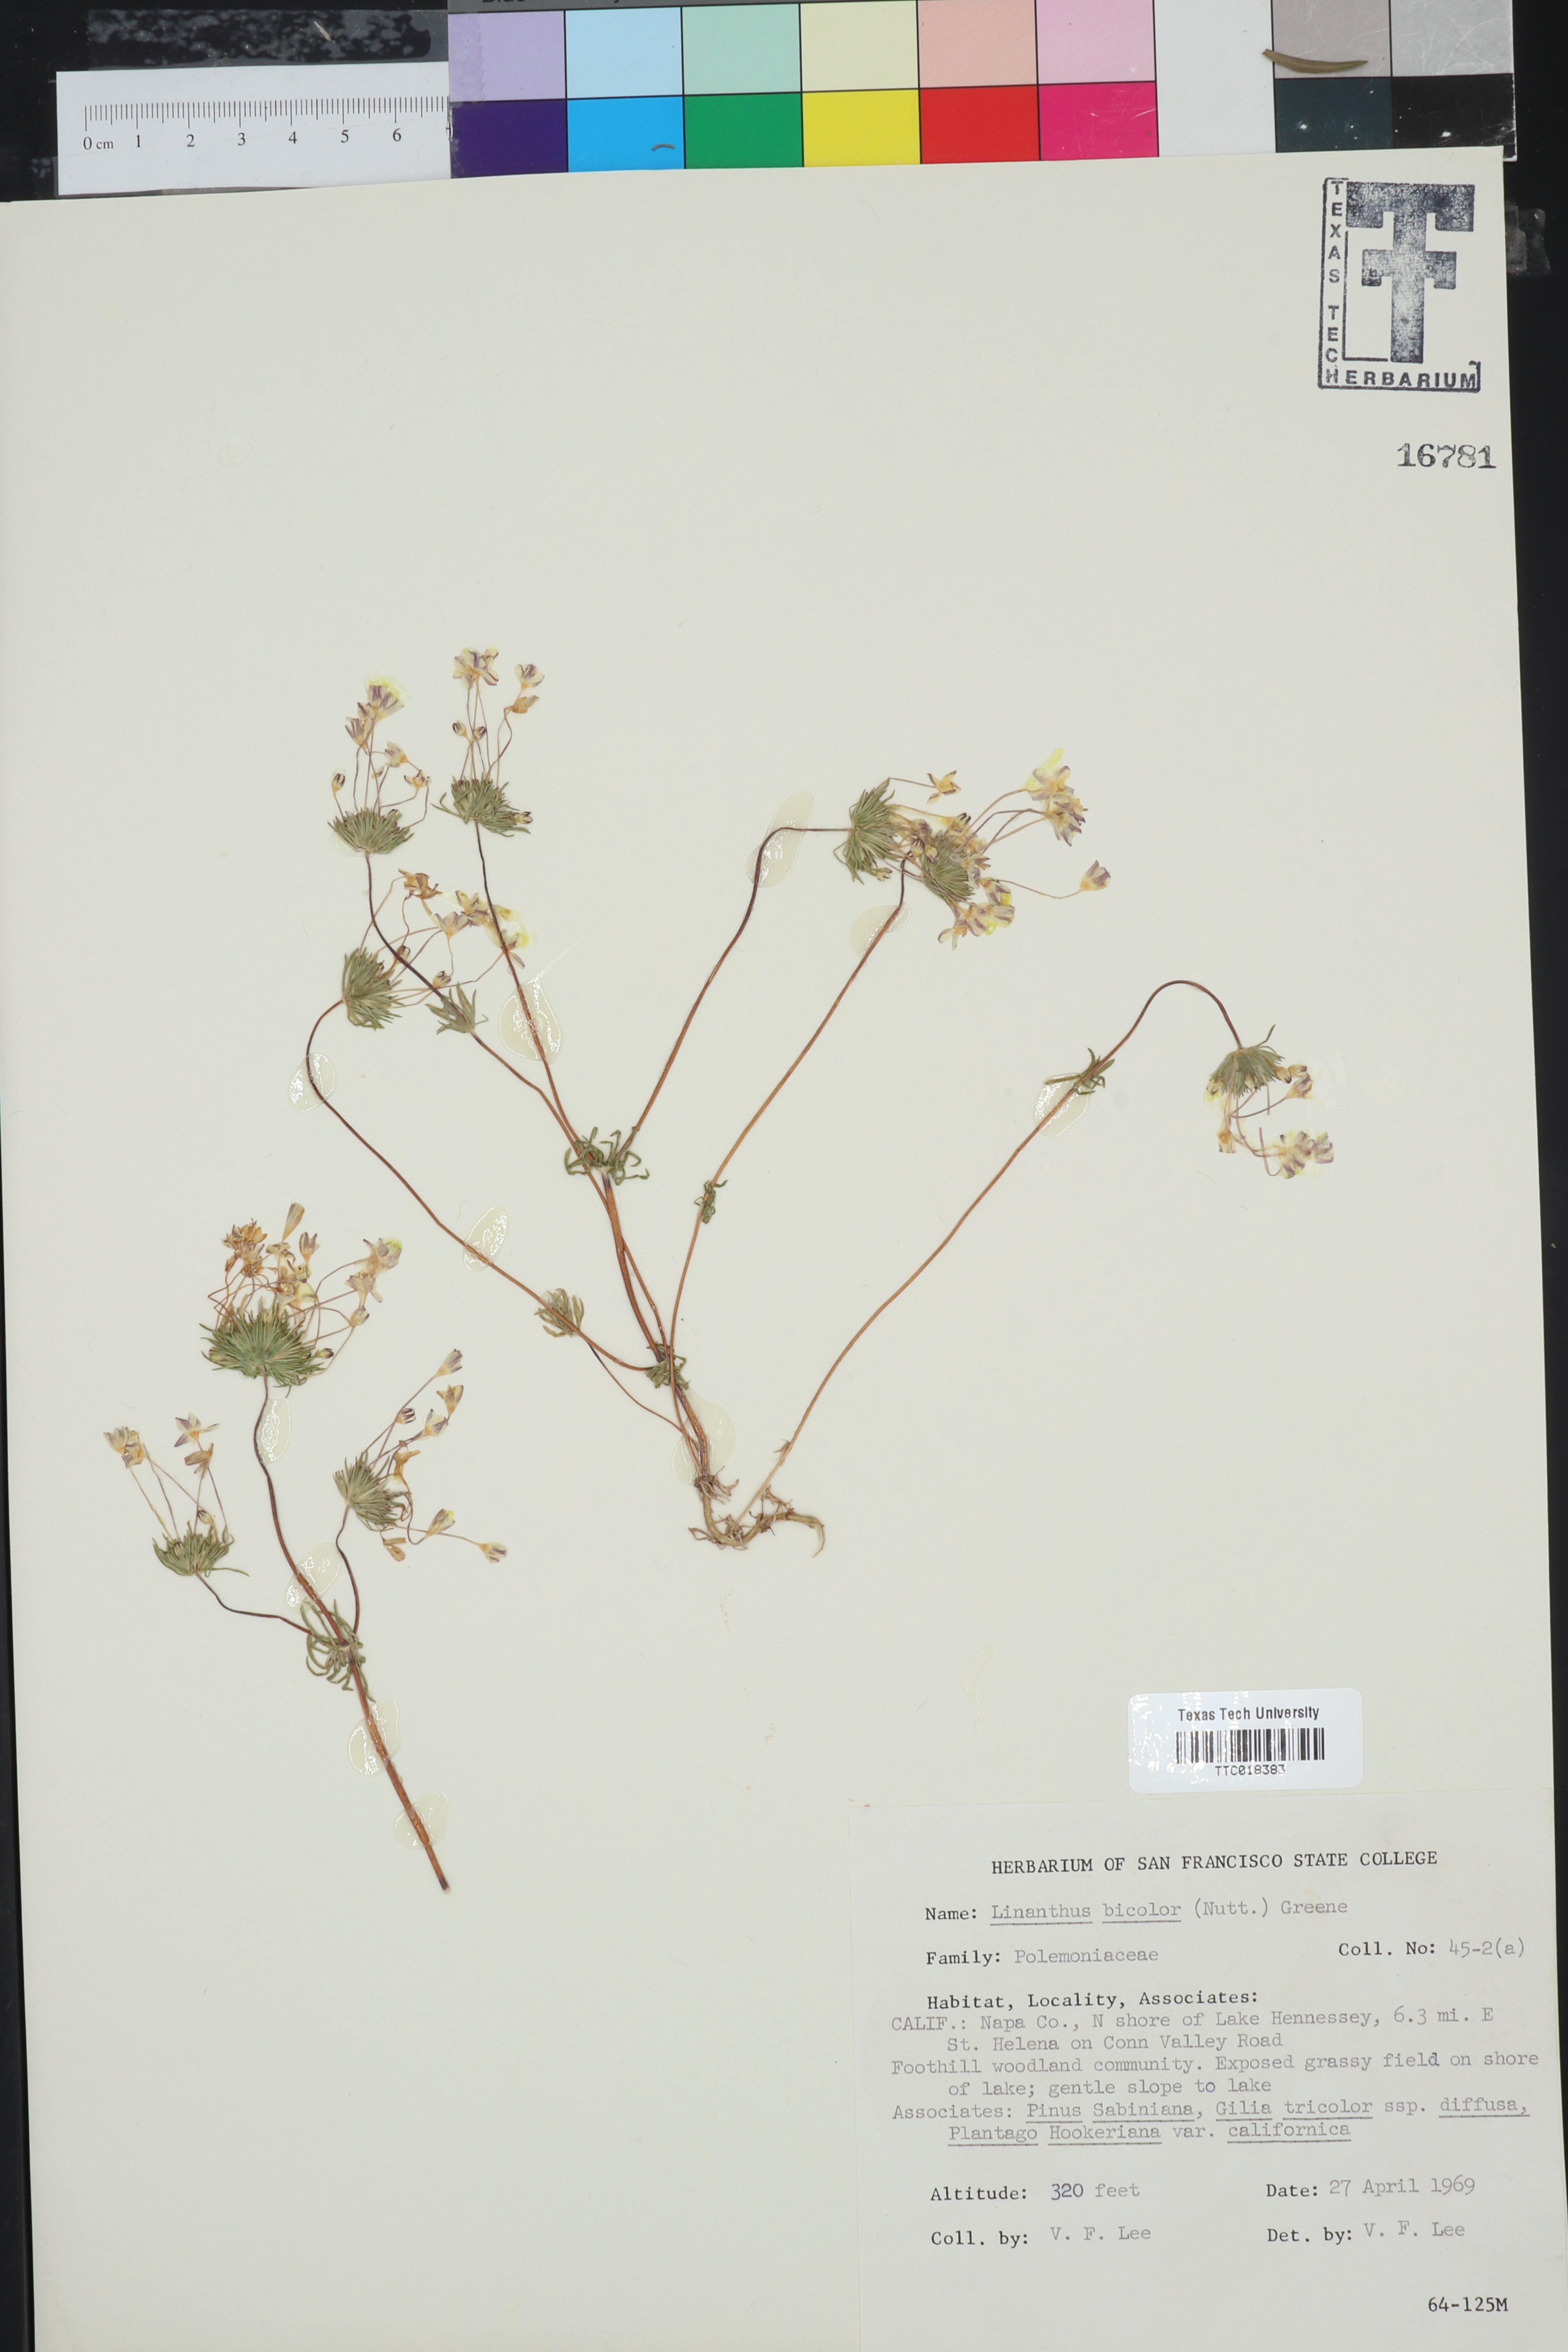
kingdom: Plantae
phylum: Tracheophyta
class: Magnoliopsida
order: Ericales
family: Polemoniaceae
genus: Leptosiphon
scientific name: Leptosiphon bicolor
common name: True babystars
